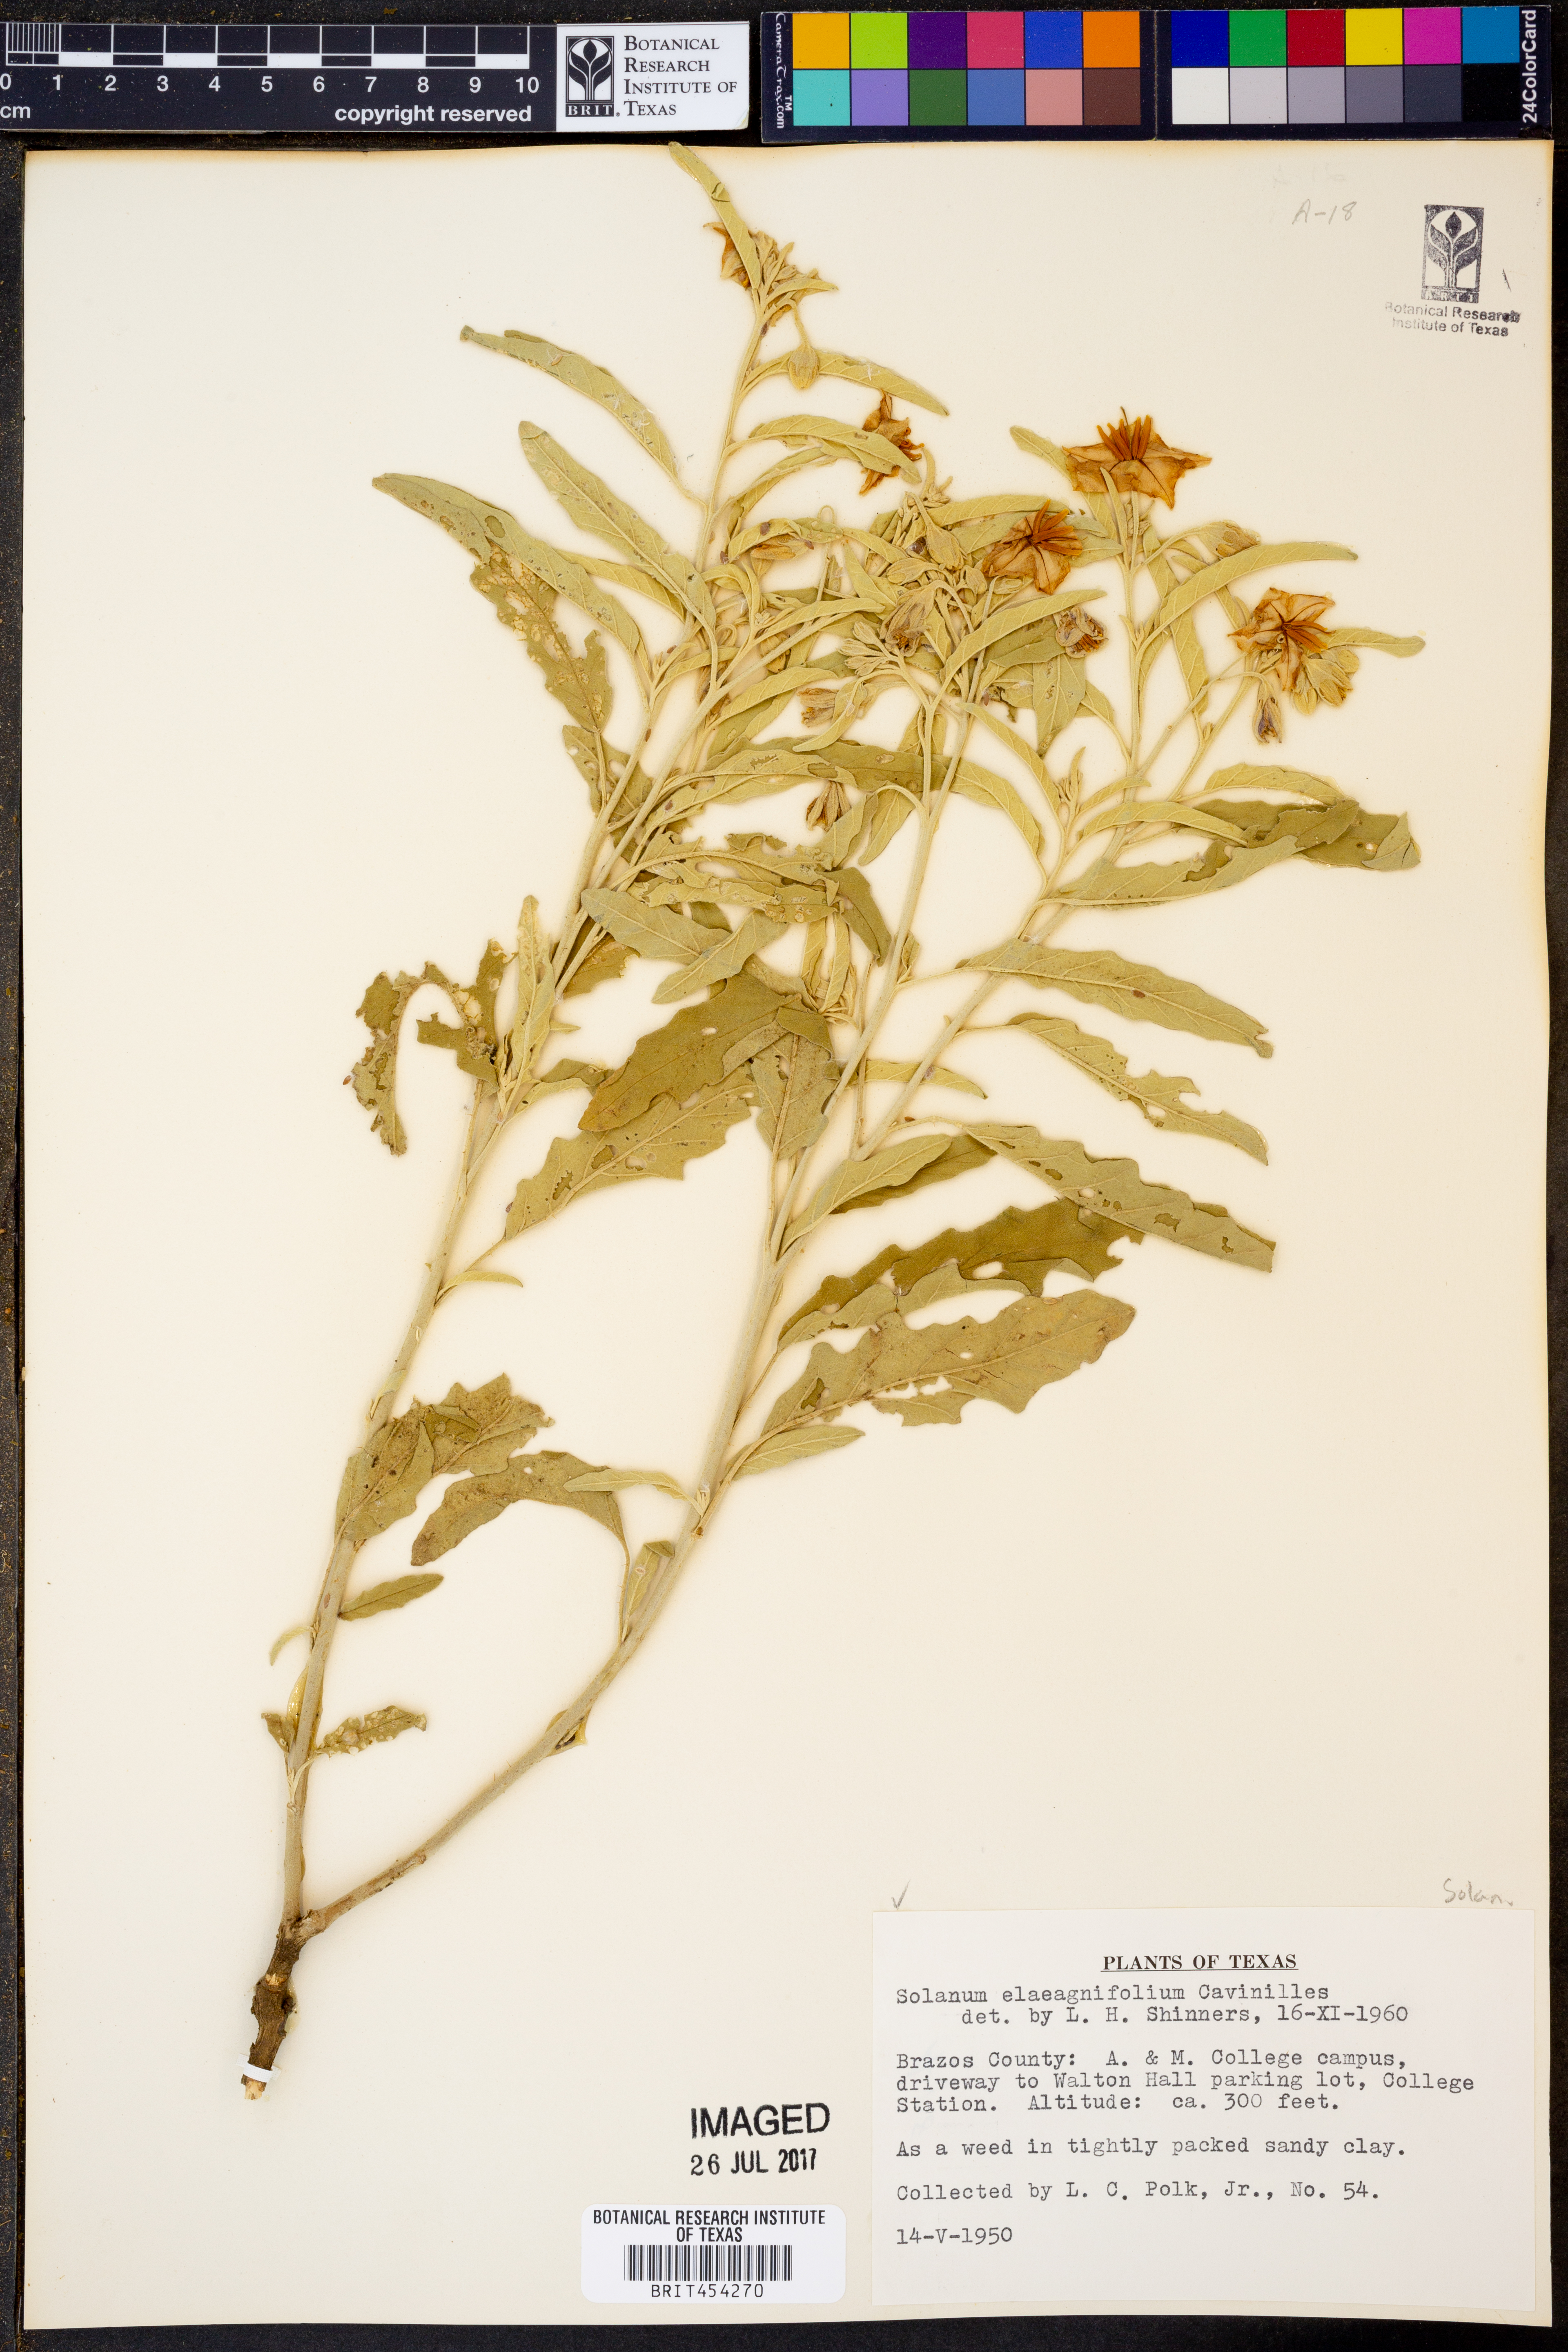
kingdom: Plantae
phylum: Tracheophyta
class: Magnoliopsida
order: Solanales
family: Solanaceae
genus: Solanum
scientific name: Solanum elaeagnifolium
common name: Silverleaf nightshade
